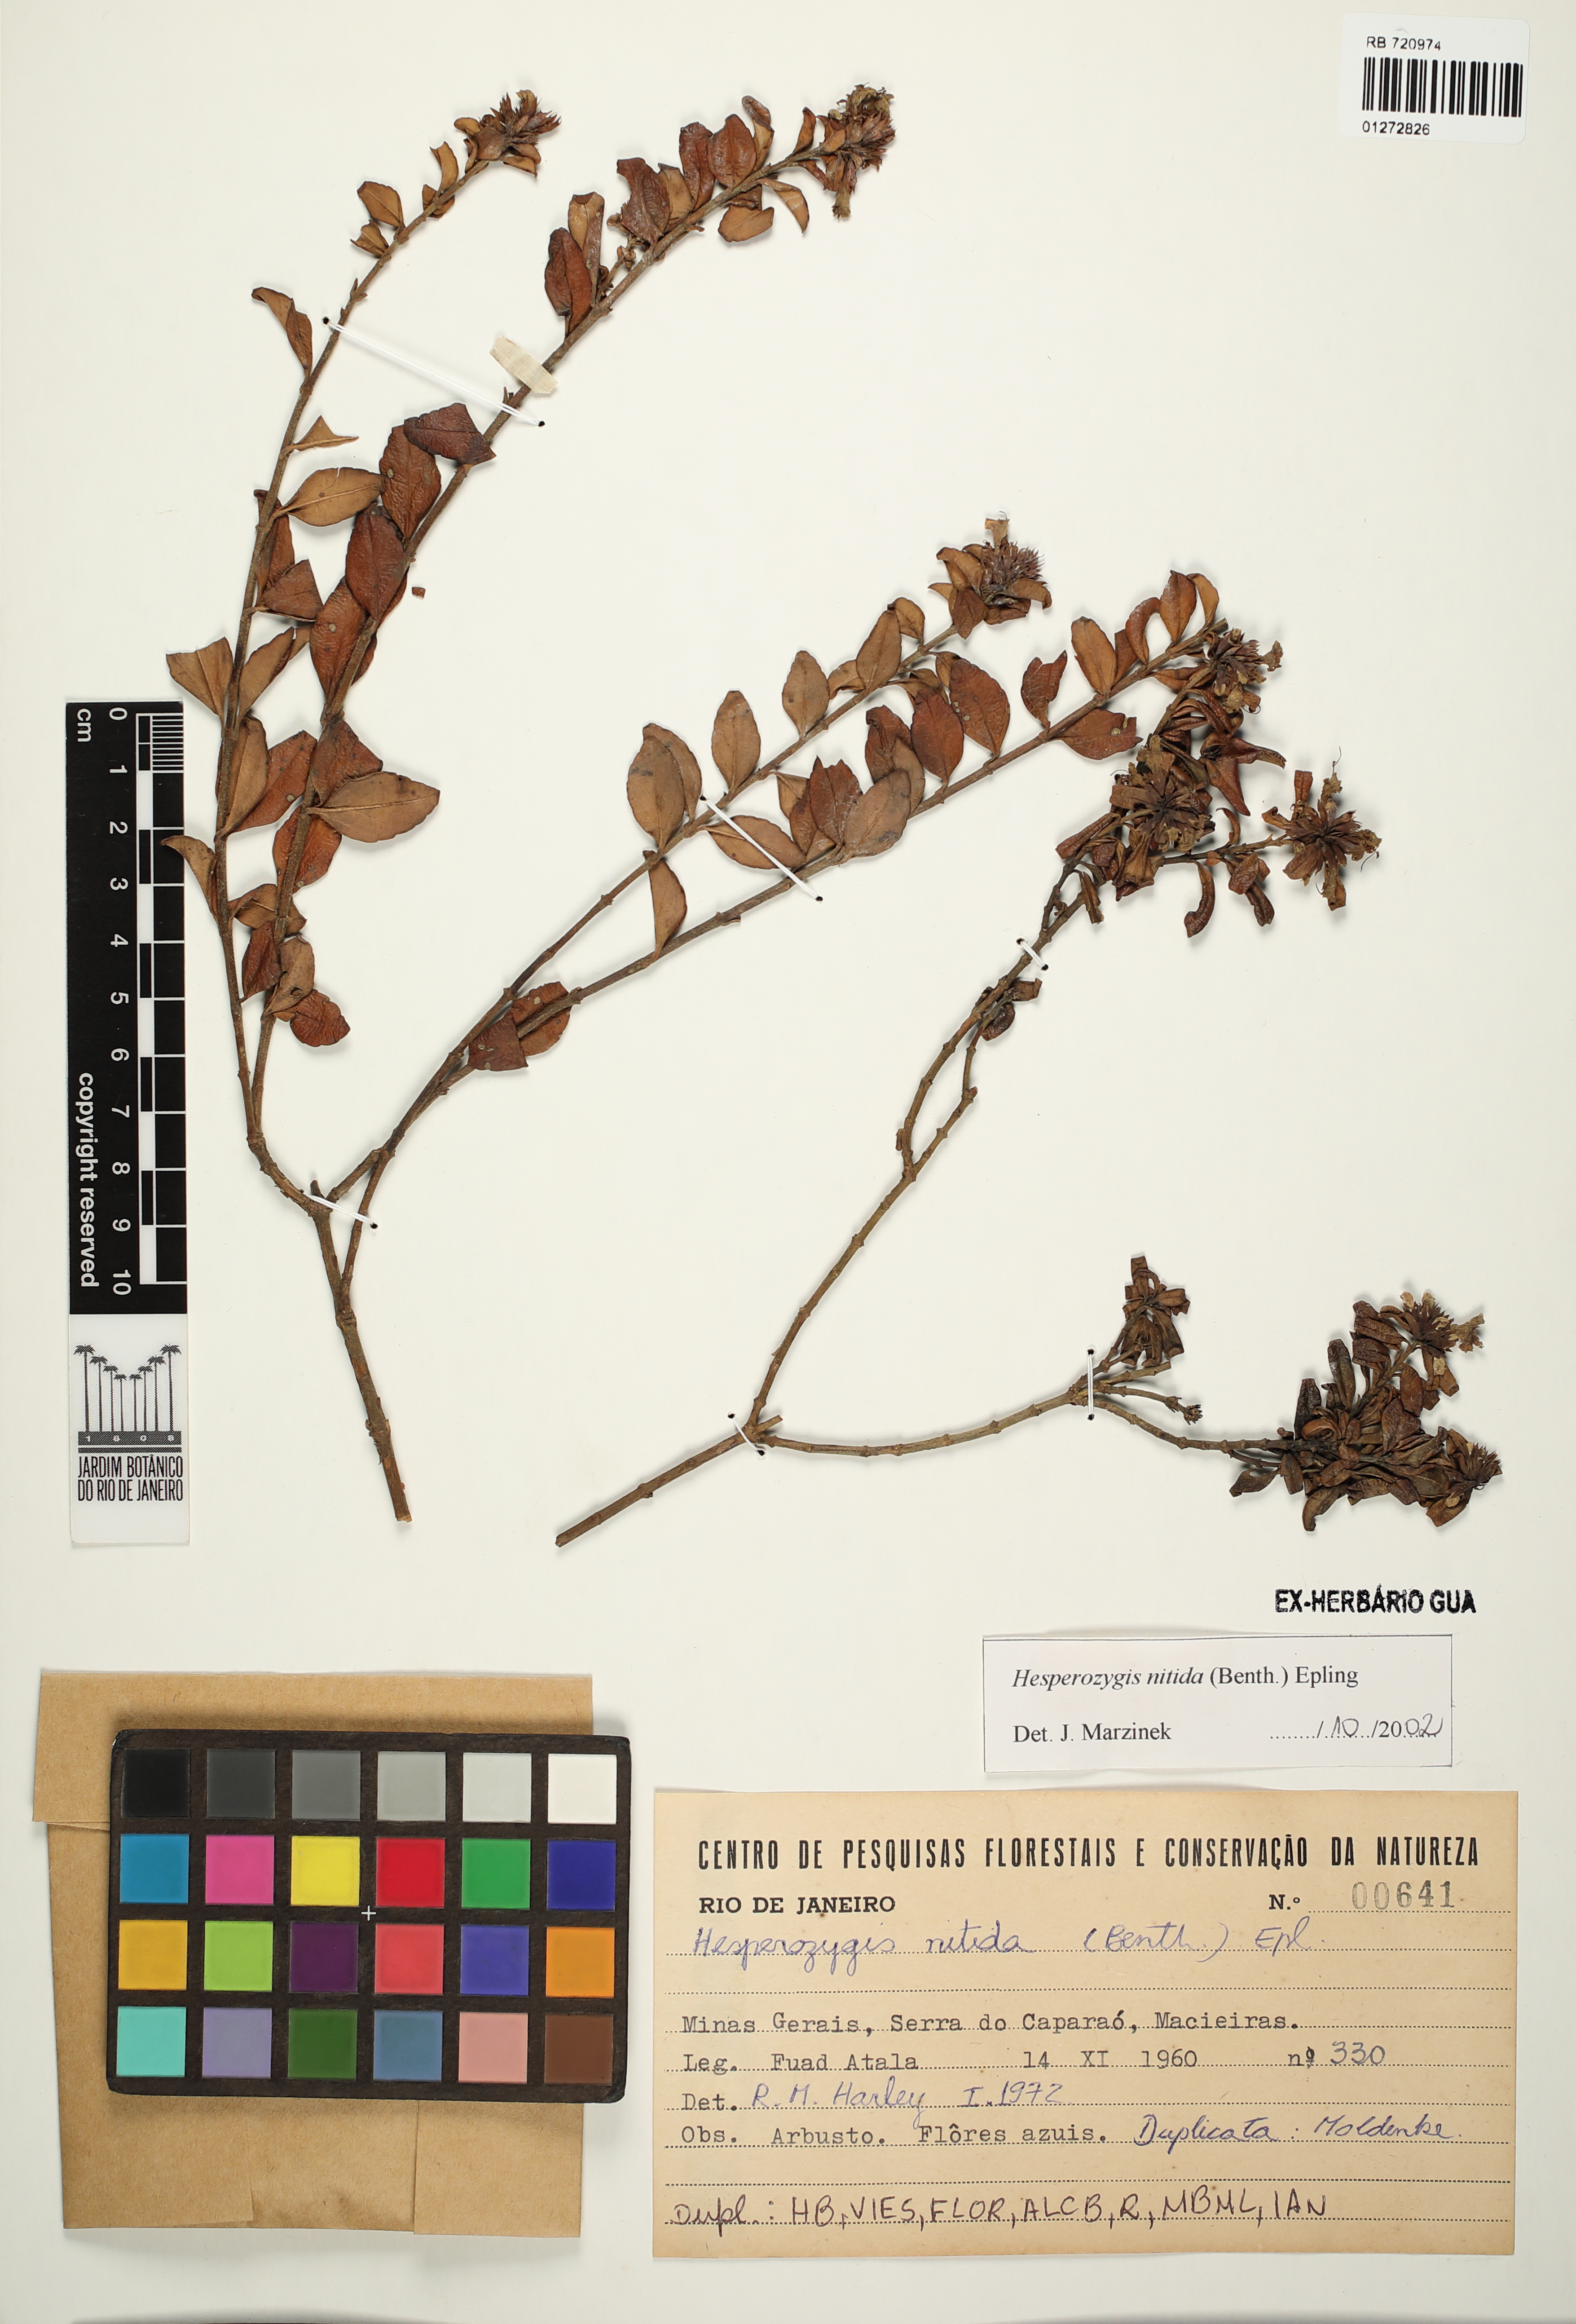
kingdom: Plantae
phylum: Tracheophyta
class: Magnoliopsida
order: Lamiales
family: Lamiaceae
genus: Hesperozygis
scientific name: Hesperozygis nitida
